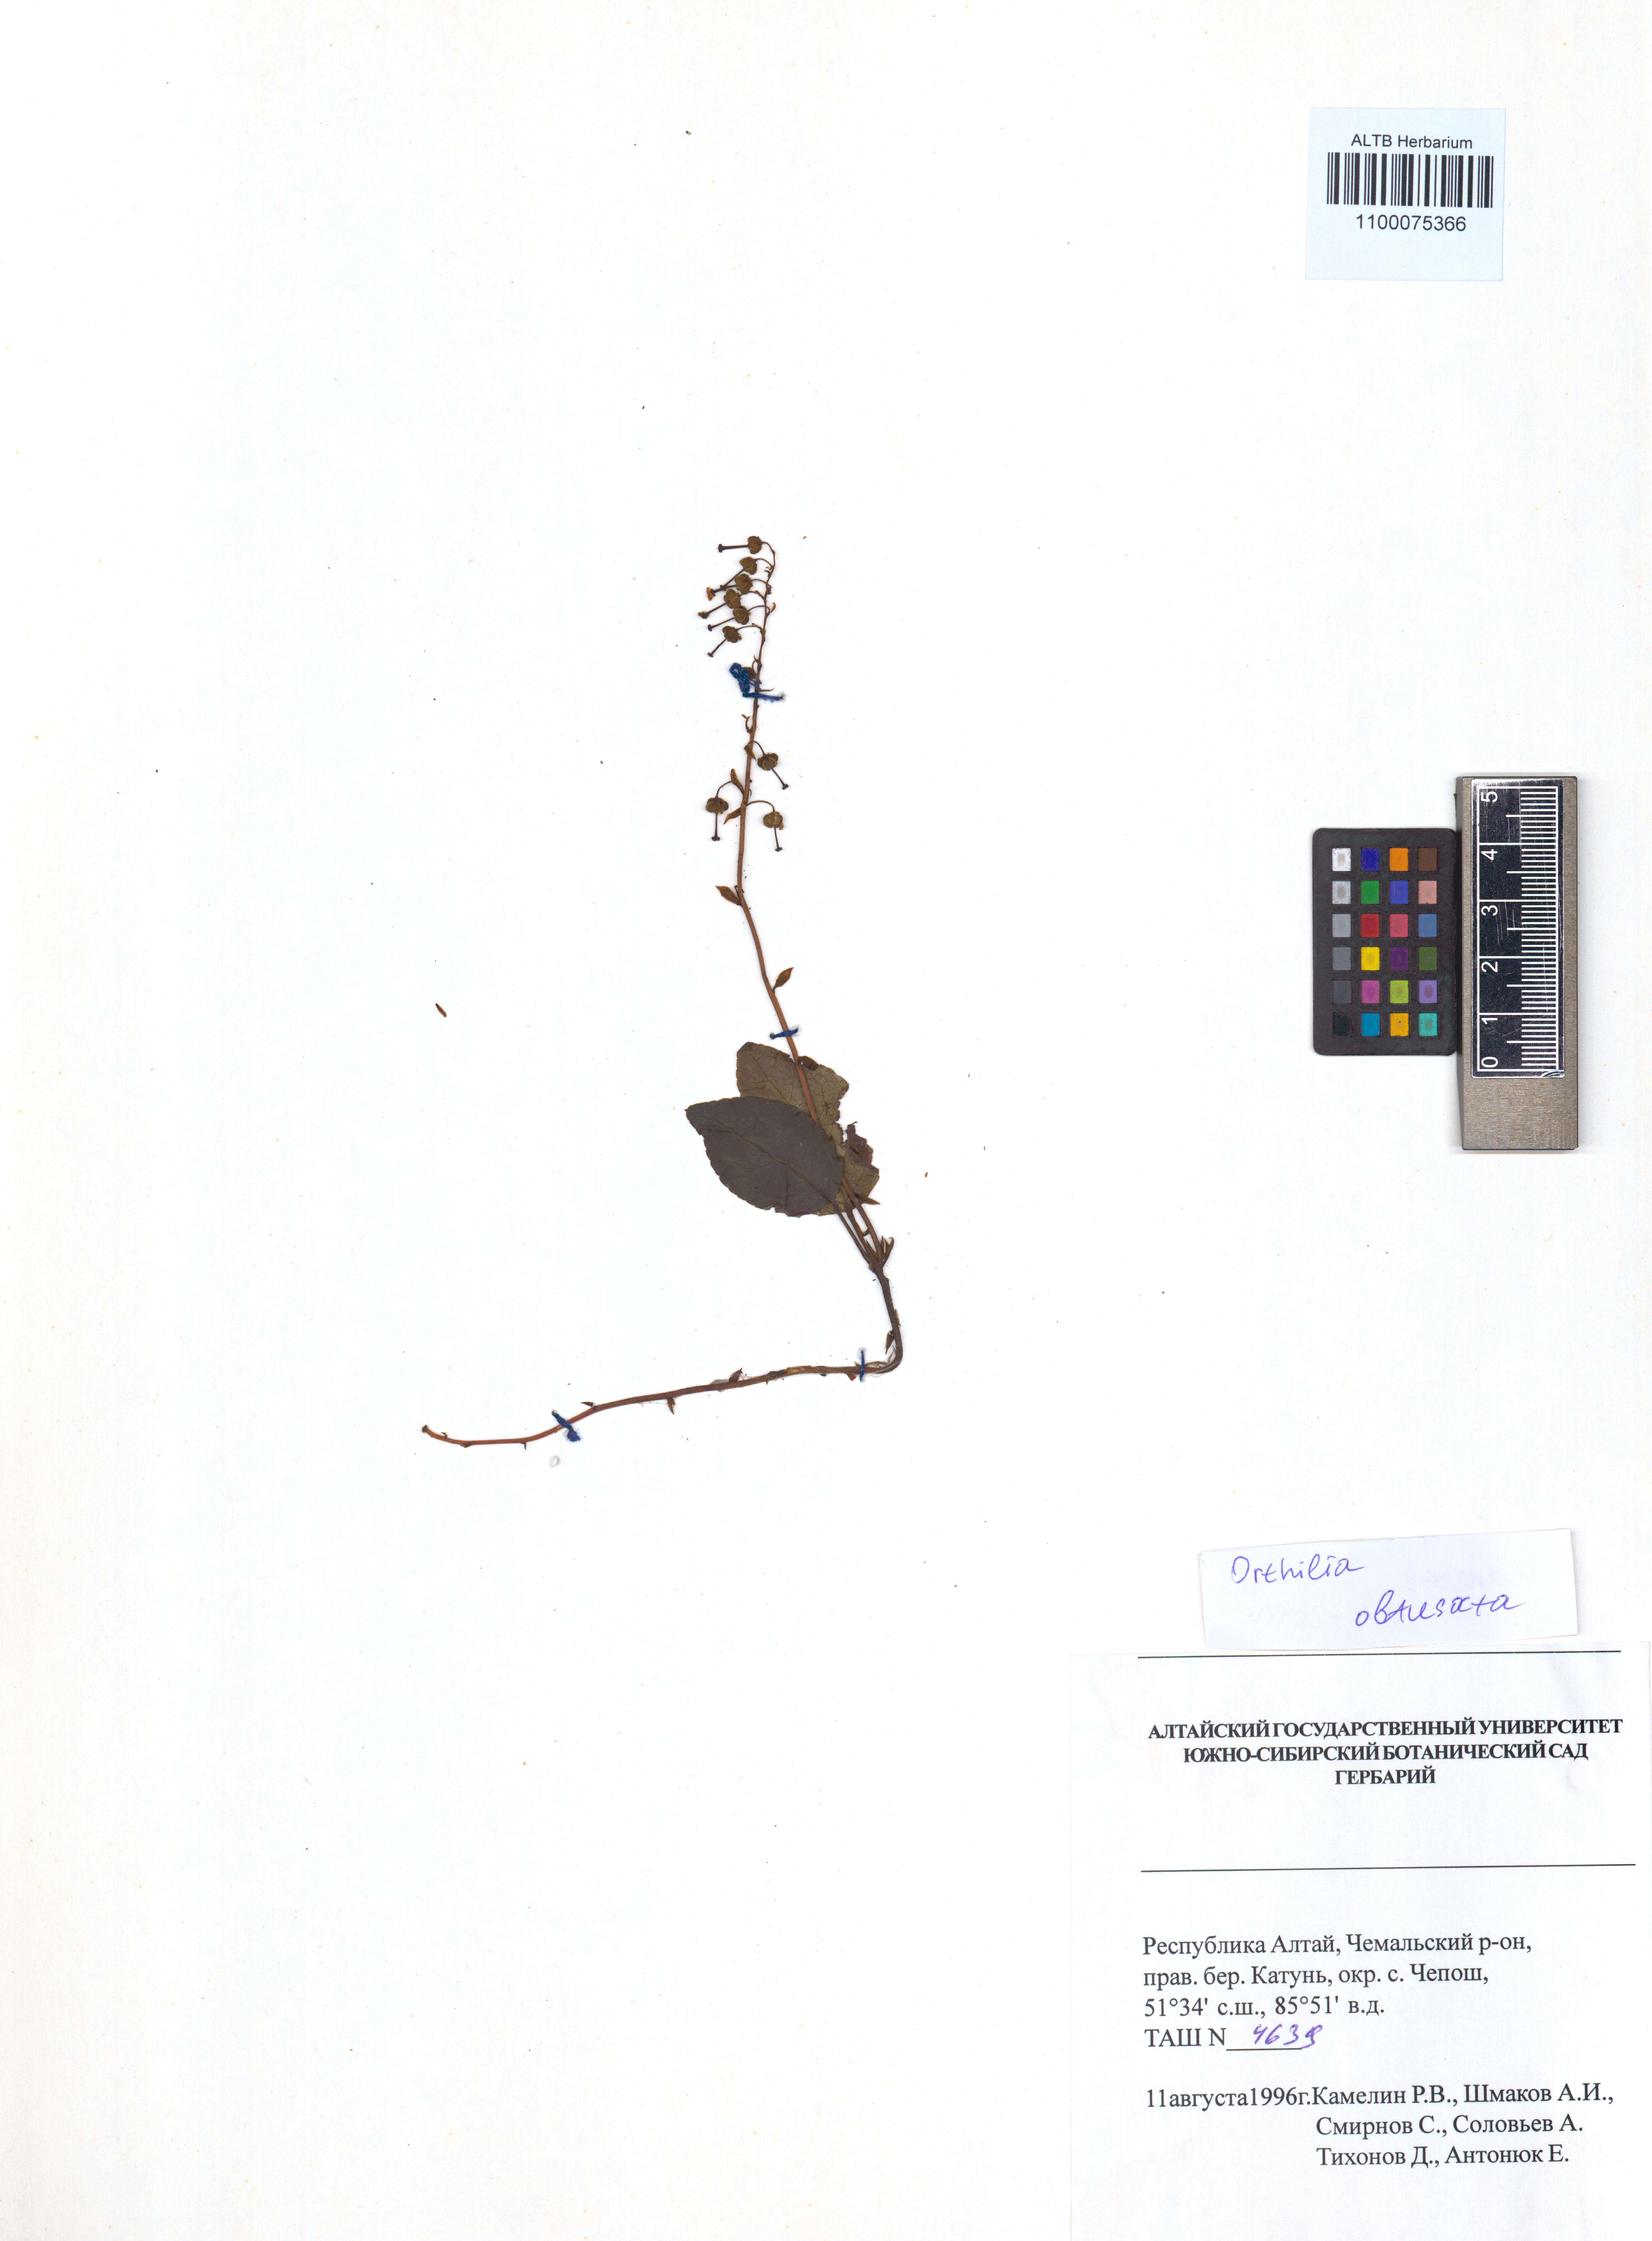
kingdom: Plantae
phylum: Tracheophyta
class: Magnoliopsida
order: Ericales
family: Ericaceae
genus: Orthilia
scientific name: Orthilia secunda
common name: One-sided orthilia
